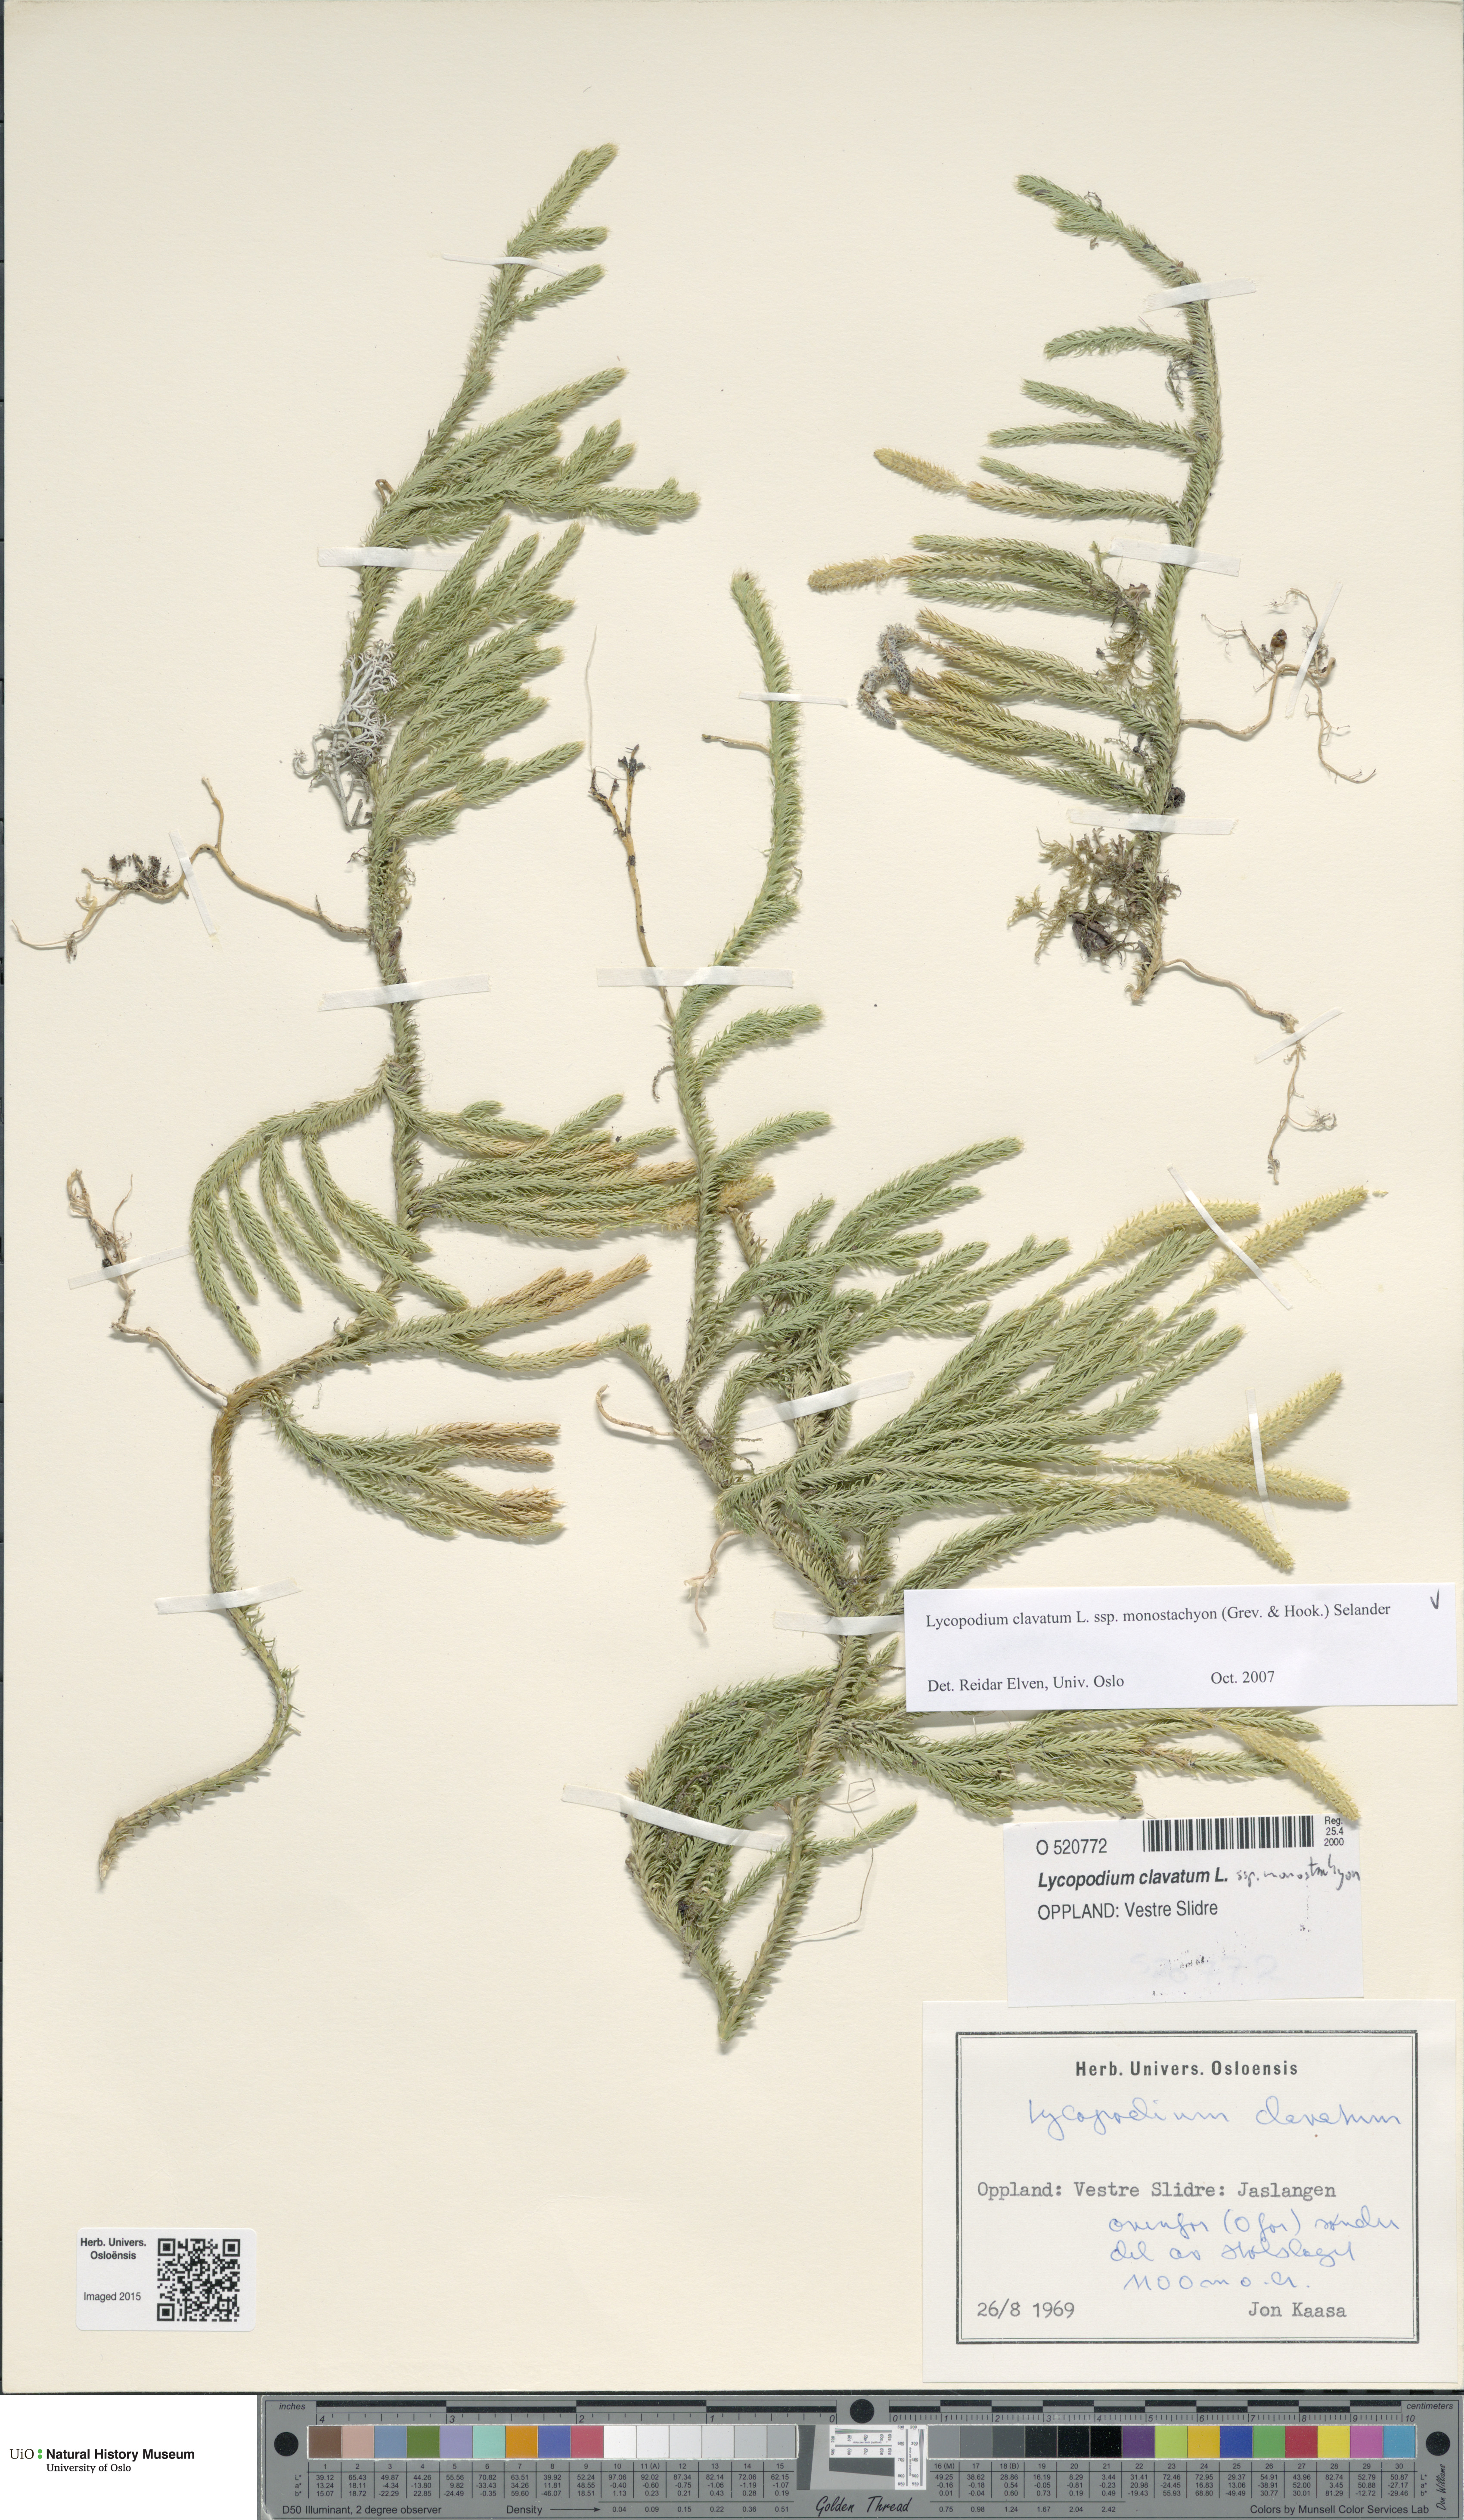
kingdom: Plantae
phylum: Tracheophyta
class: Lycopodiopsida
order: Lycopodiales
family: Lycopodiaceae
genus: Lycopodium
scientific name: Lycopodium lagopus
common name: One-cone clubmoss
